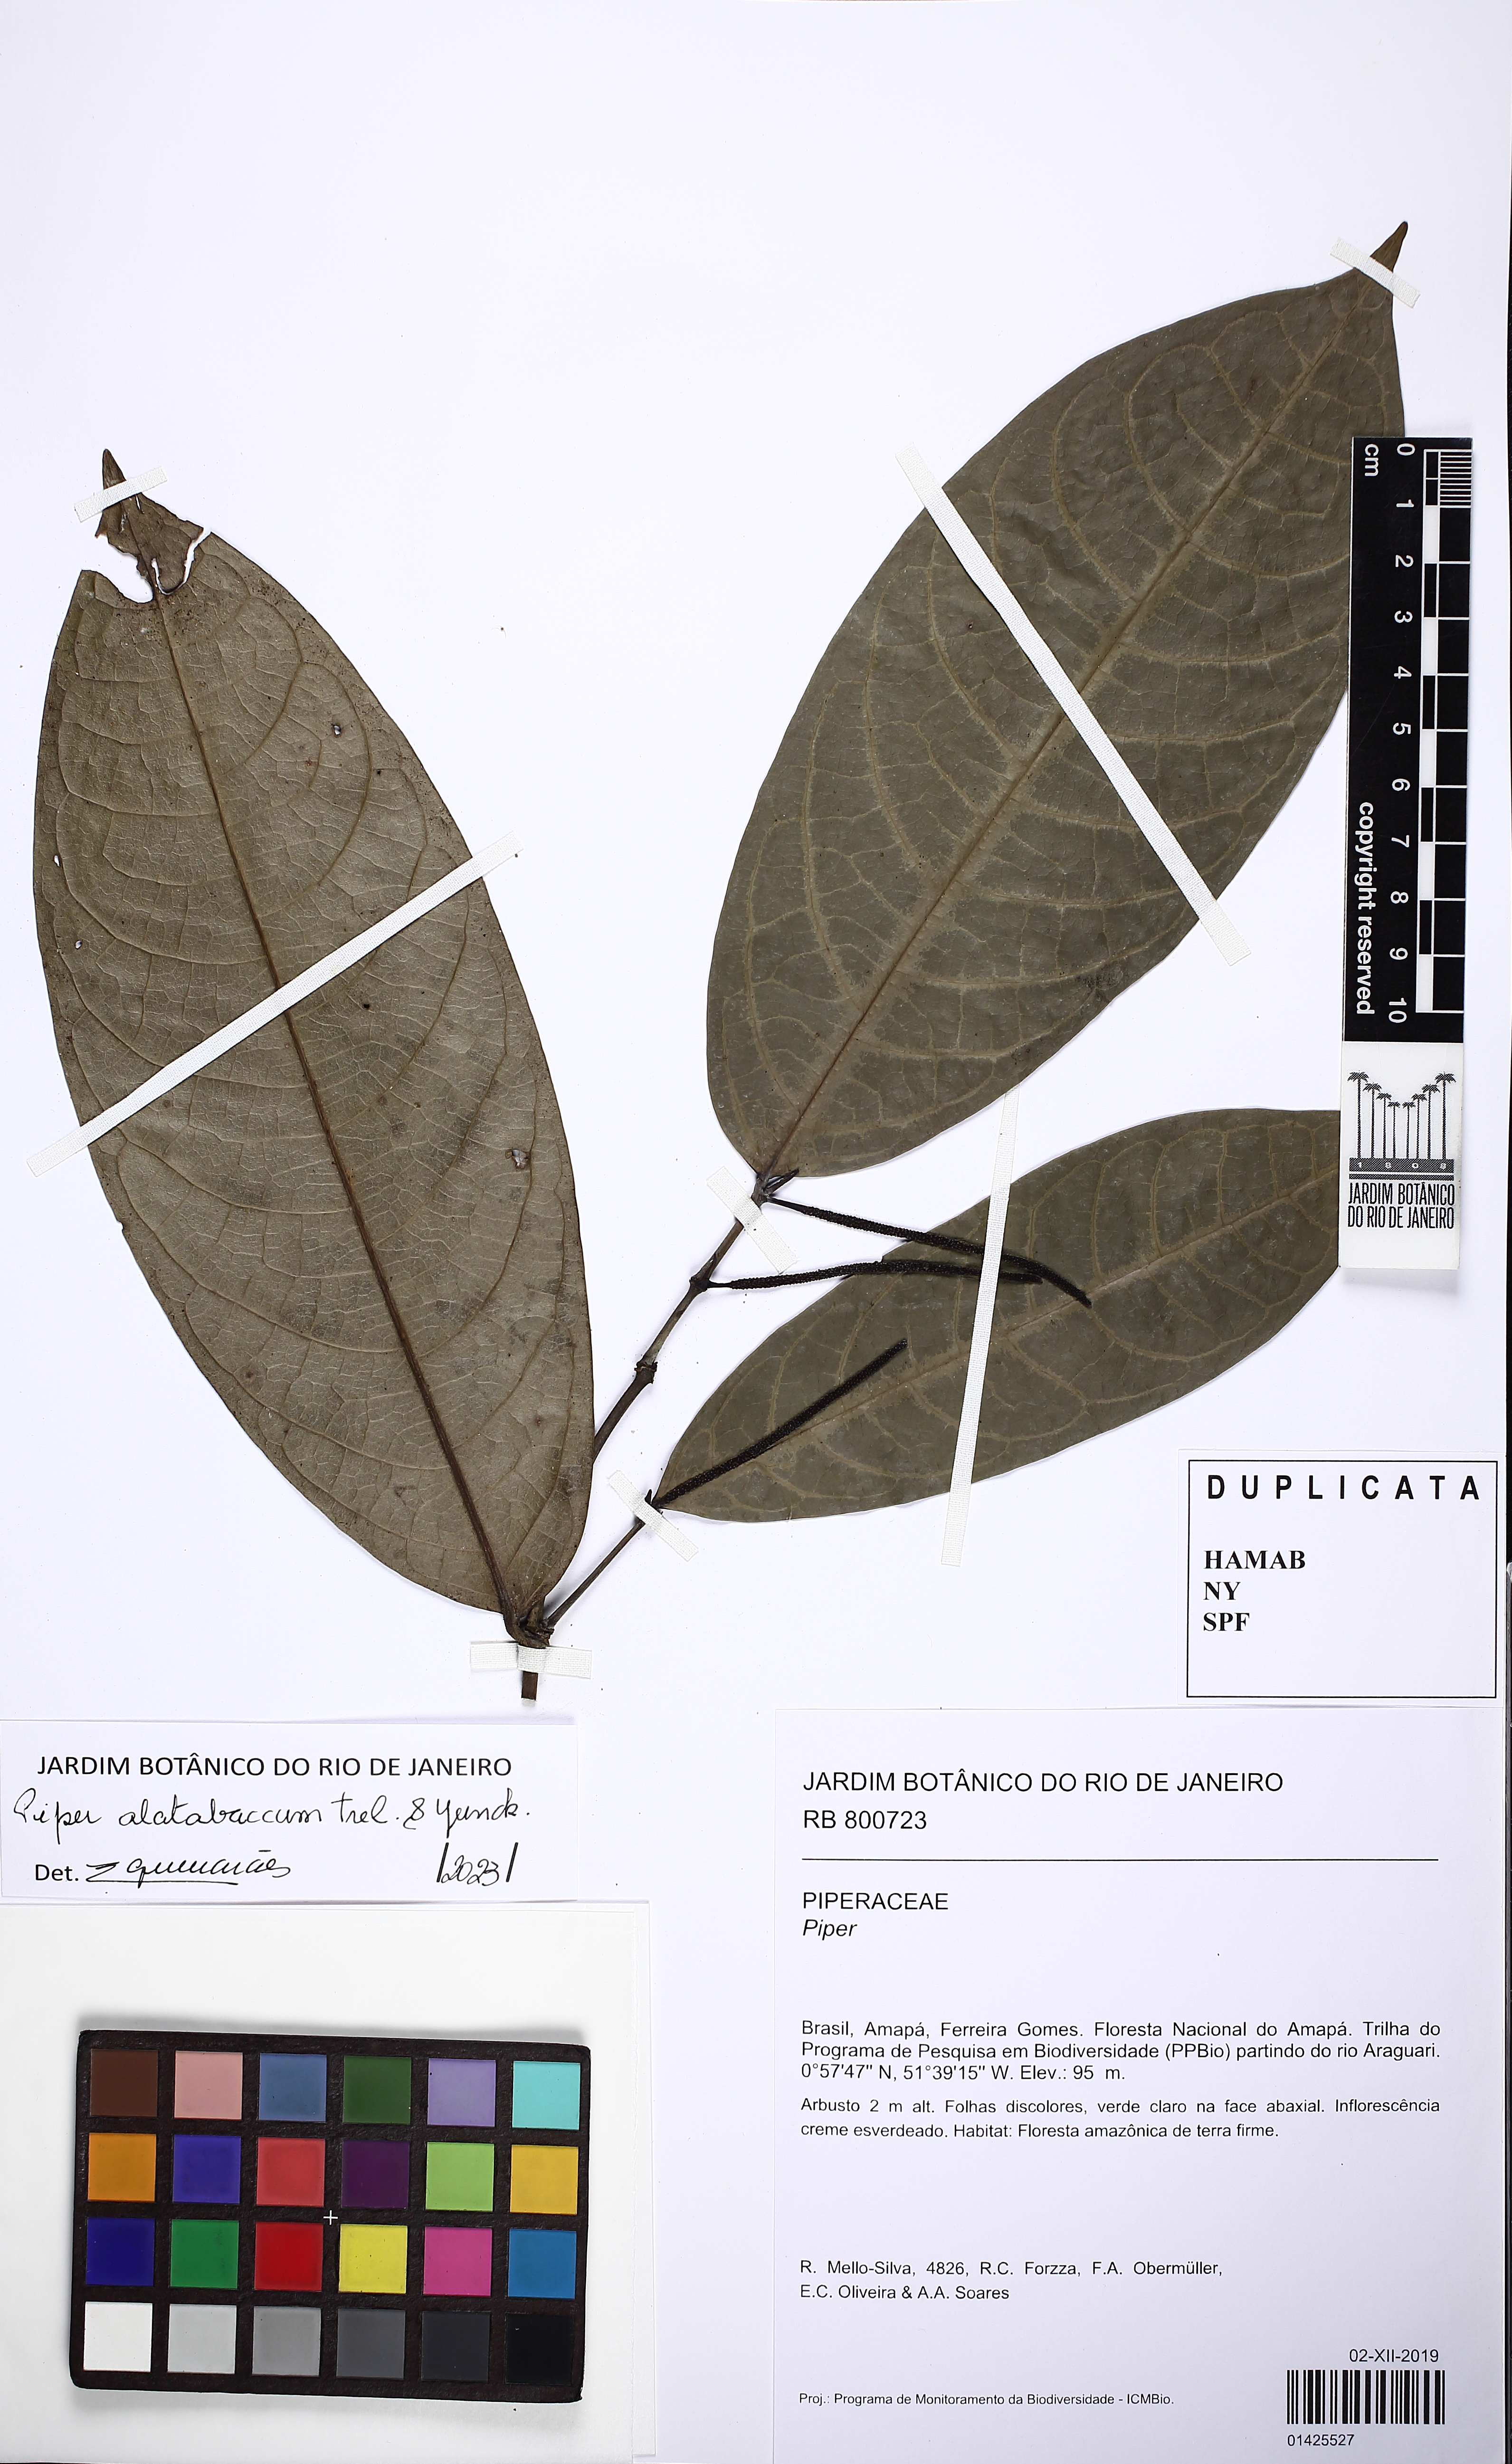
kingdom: Plantae
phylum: Tracheophyta
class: Magnoliopsida
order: Piperales
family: Piperaceae
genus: Piper
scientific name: Piper alatabaccum
